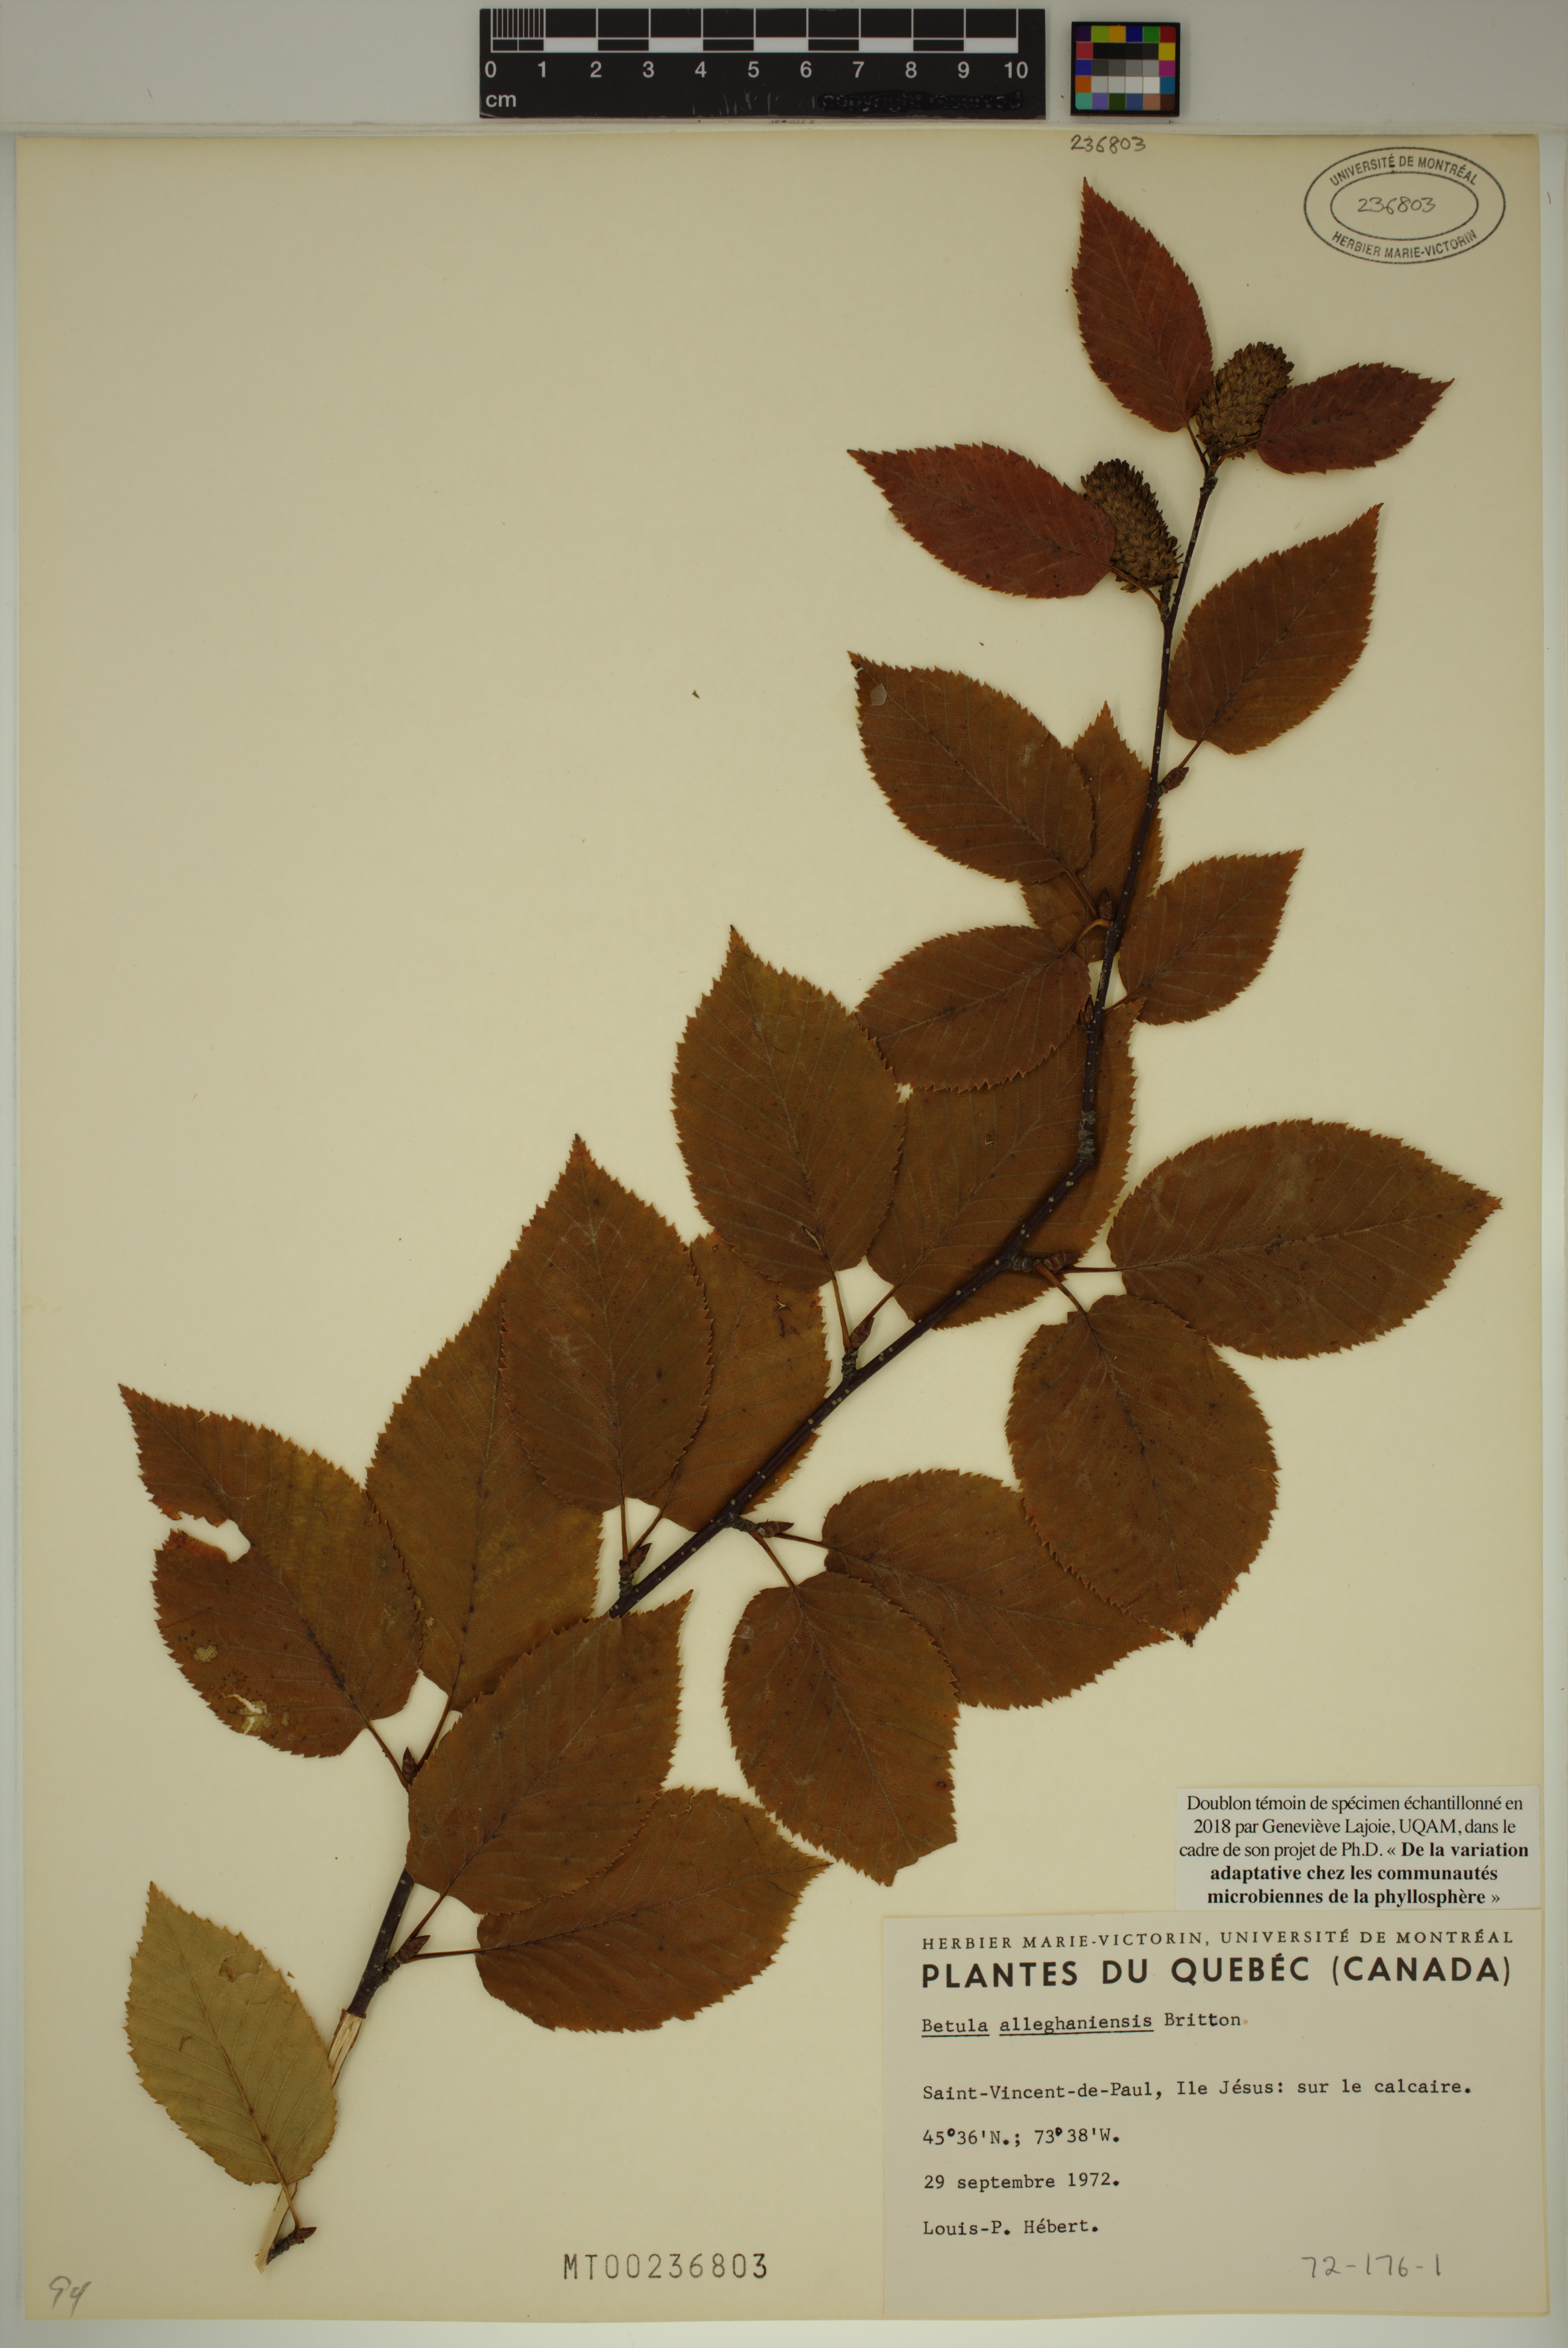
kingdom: Plantae
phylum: Tracheophyta
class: Magnoliopsida
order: Fagales
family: Betulaceae
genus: Betula
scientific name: Betula alleghaniensis
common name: Yellow birch
